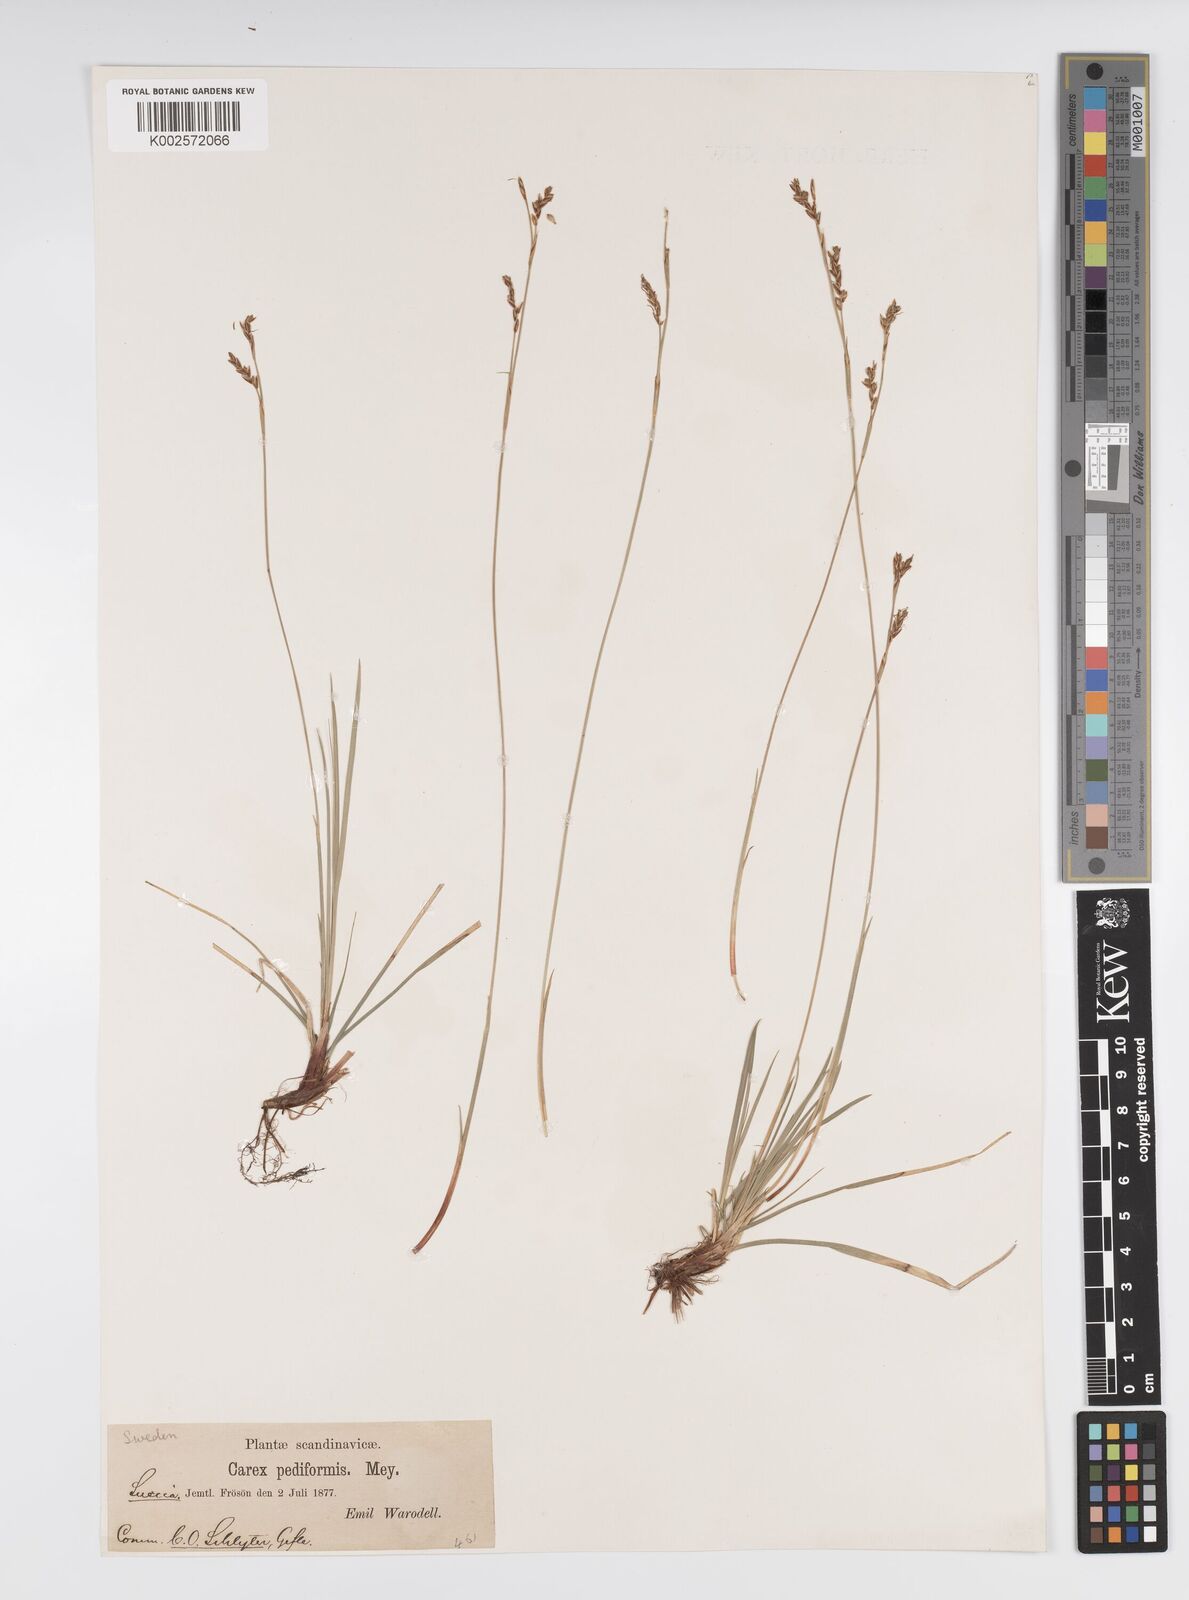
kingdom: Plantae
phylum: Tracheophyta
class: Liliopsida
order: Poales
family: Cyperaceae
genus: Carex
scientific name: Carex pediformis
